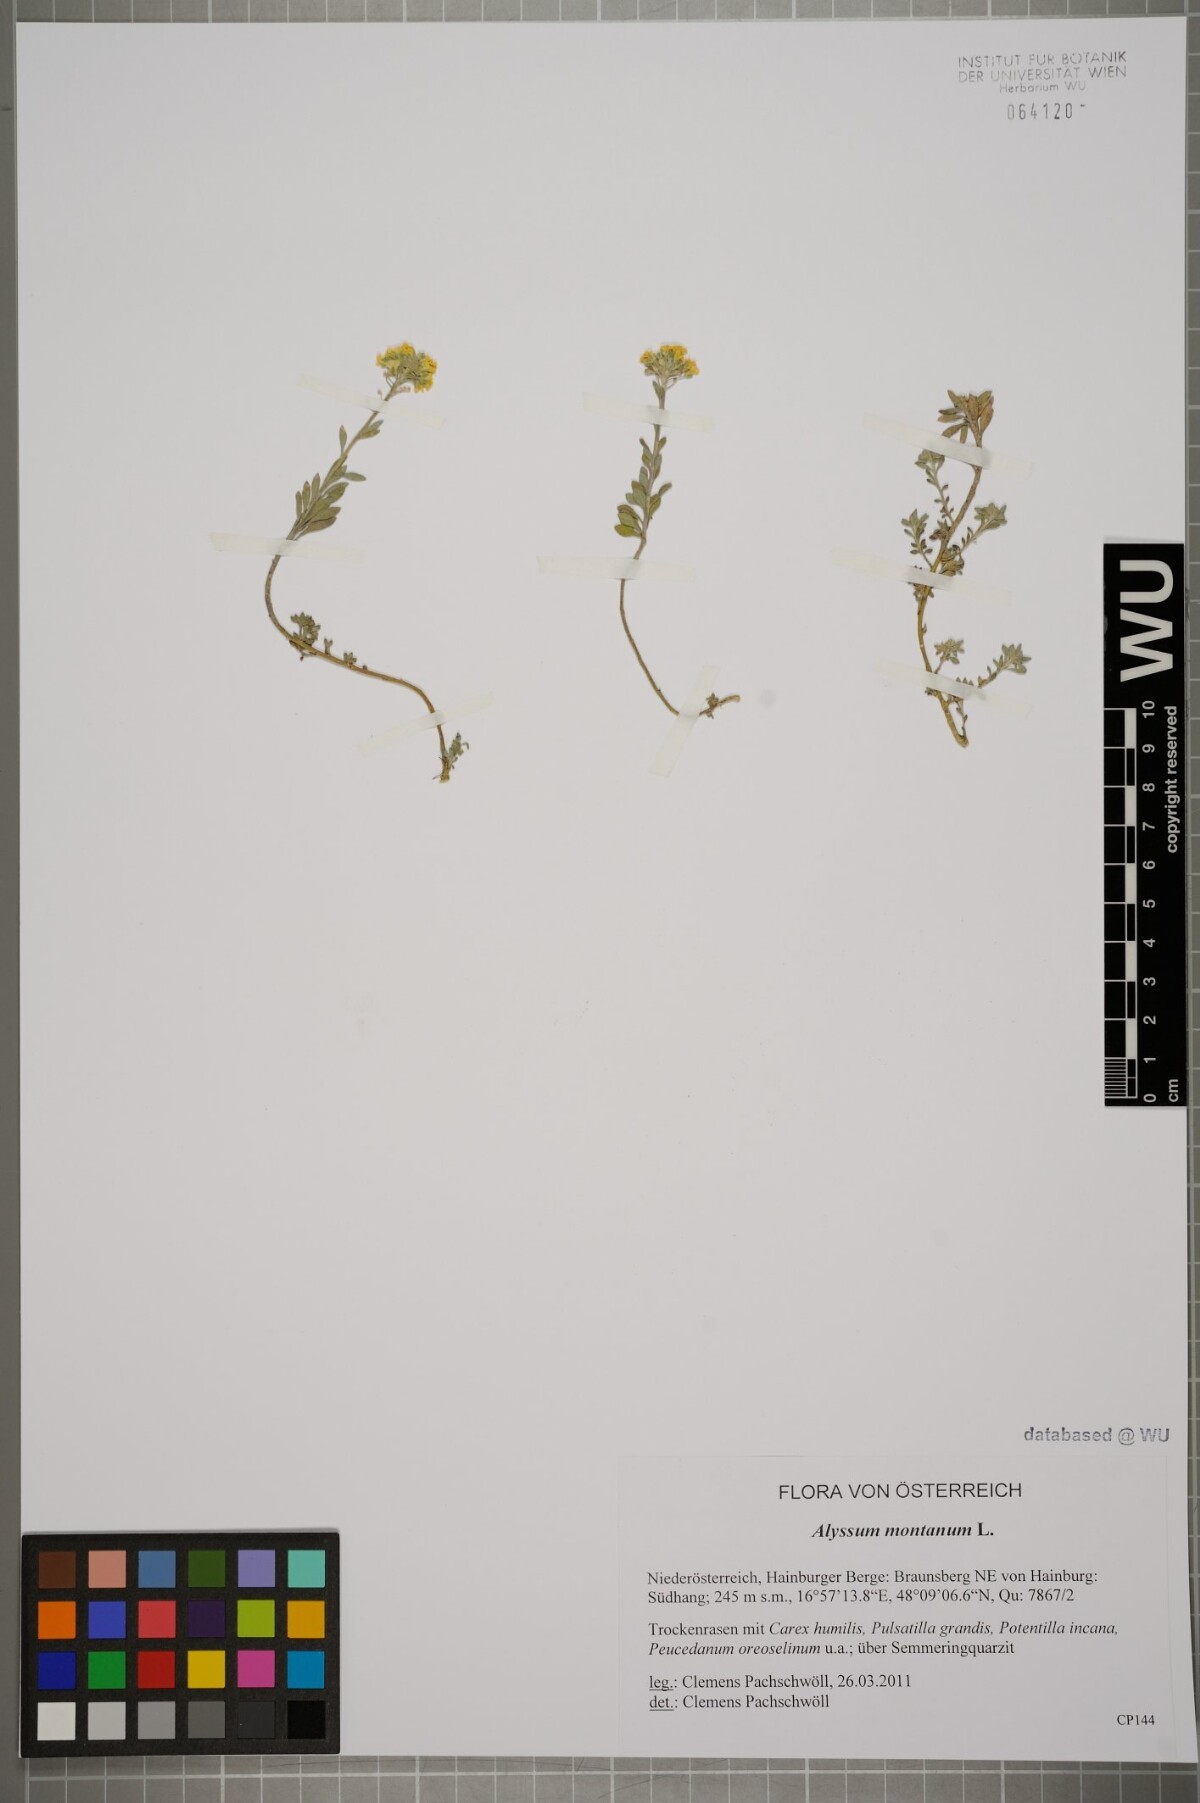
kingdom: Plantae
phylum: Tracheophyta
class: Magnoliopsida
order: Brassicales
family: Brassicaceae
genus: Alyssum
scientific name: Alyssum montanum
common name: Mountain alison
